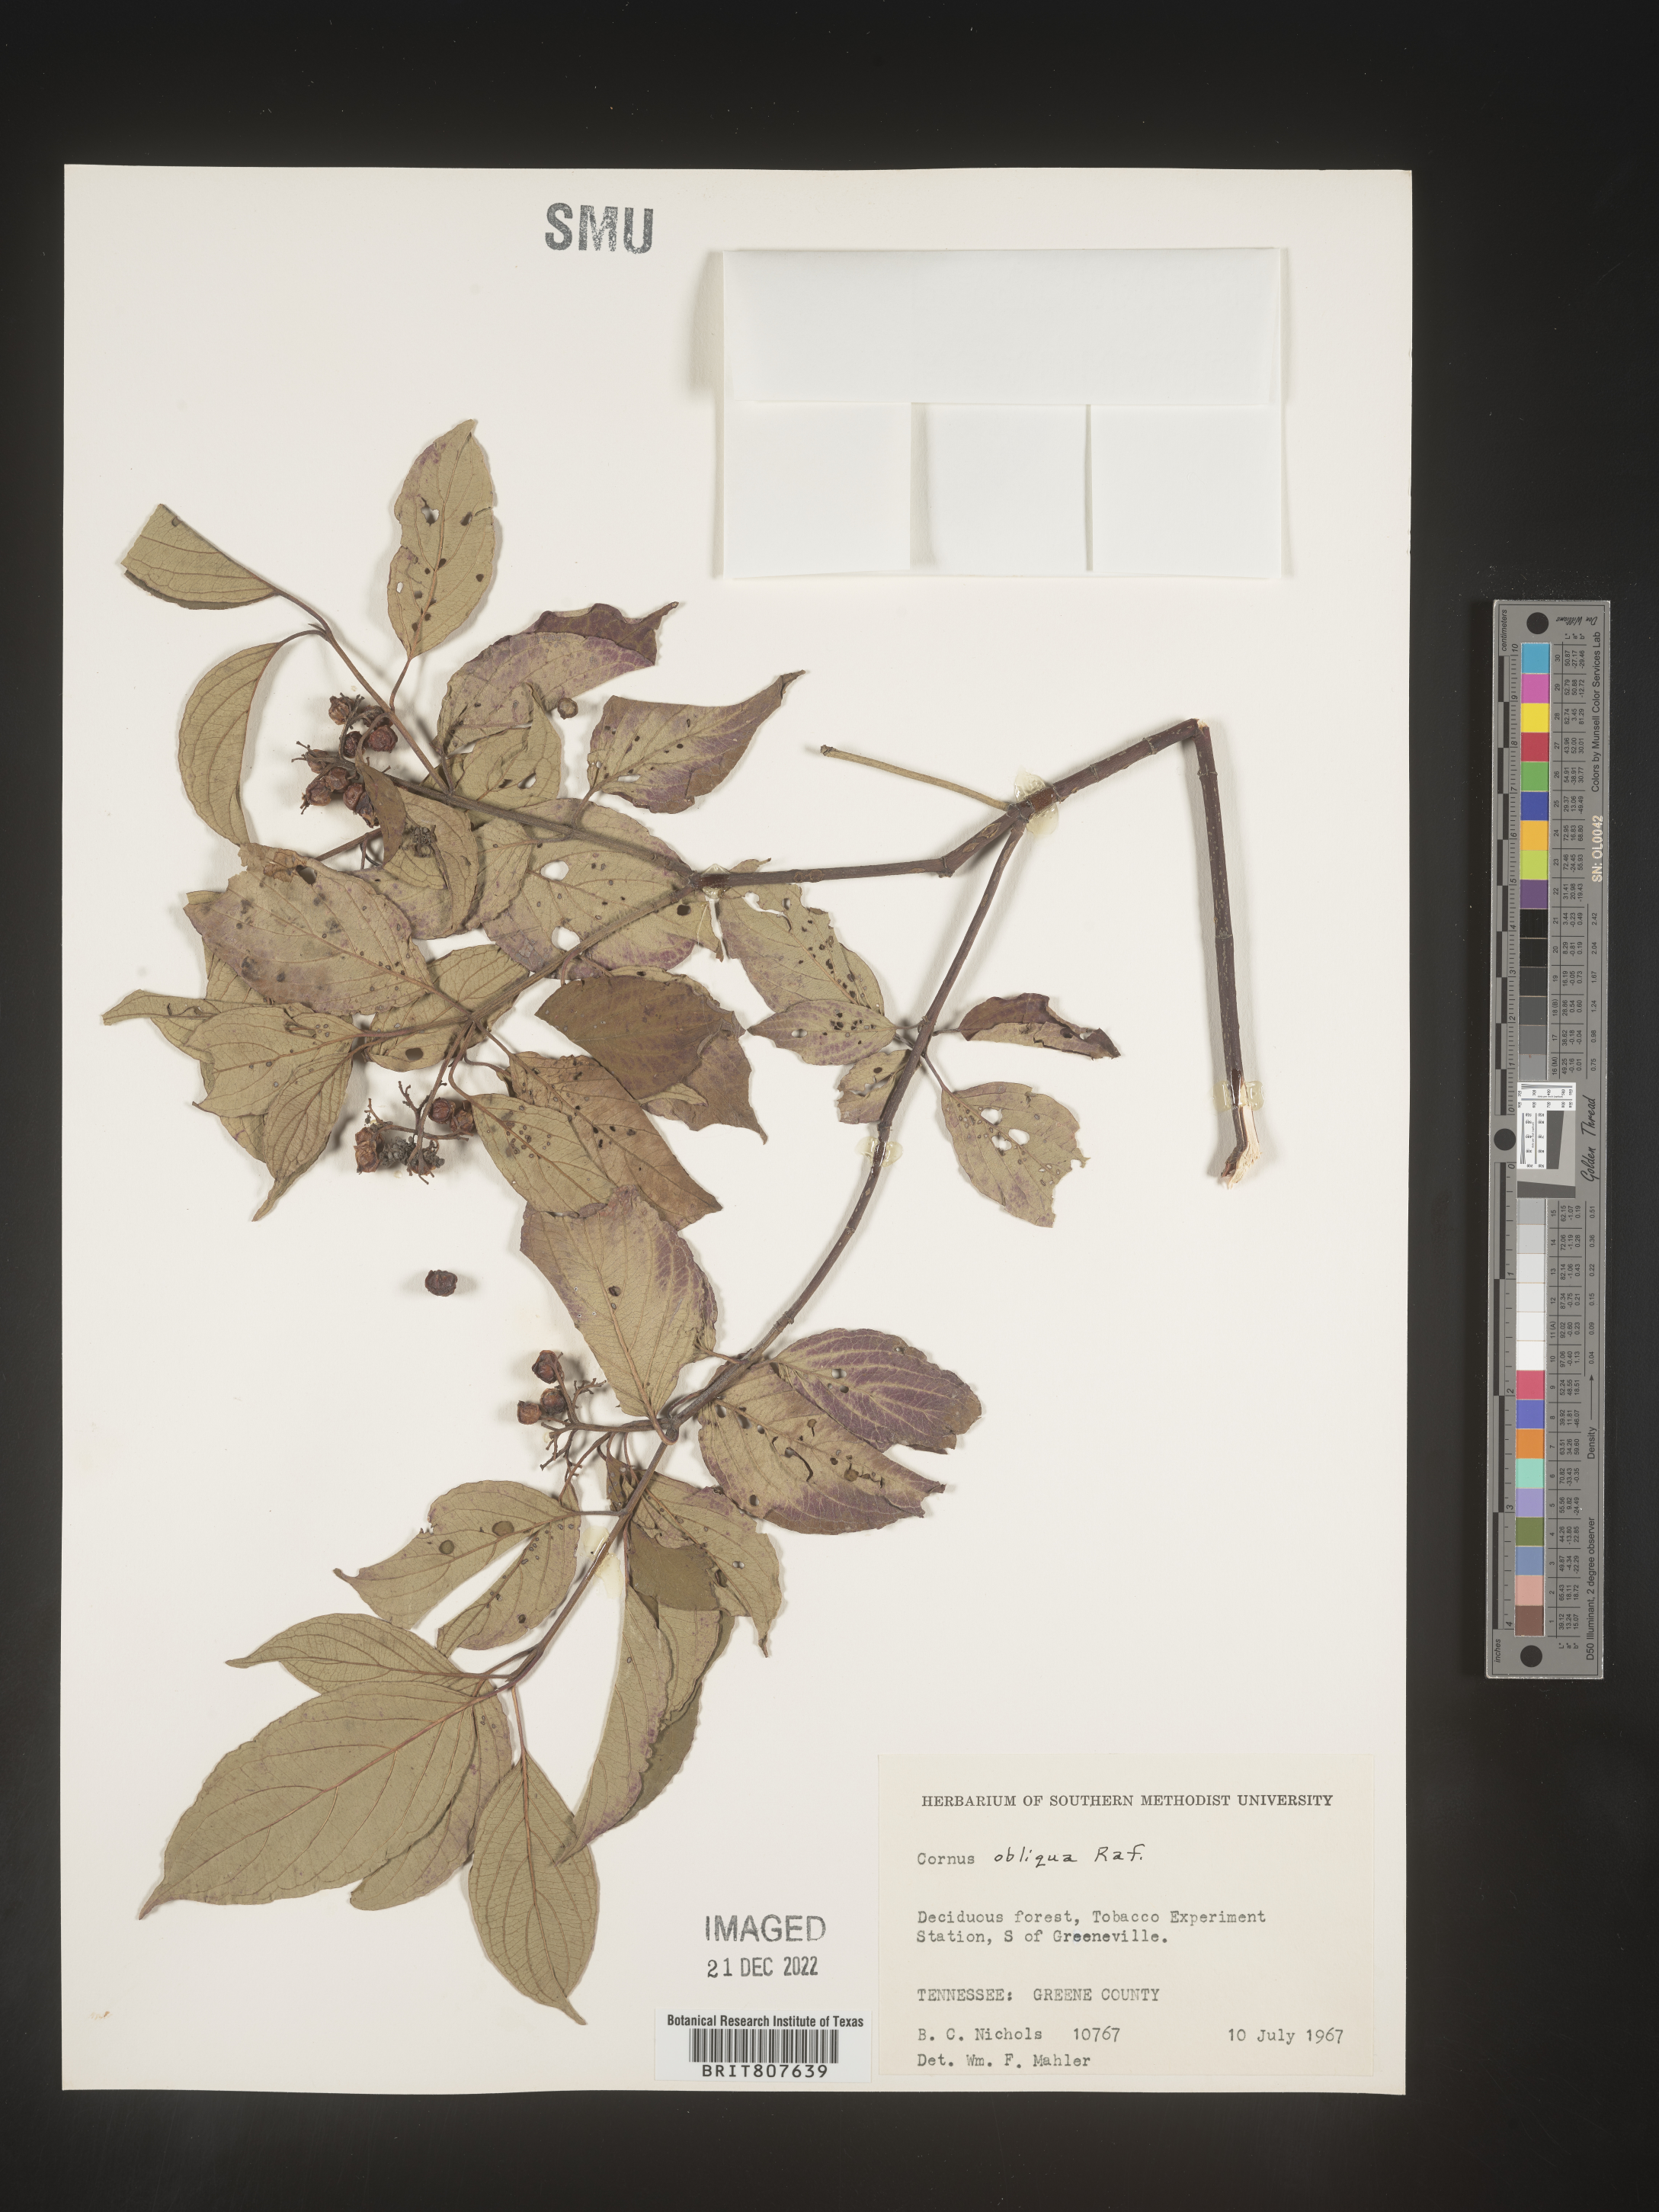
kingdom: Plantae
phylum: Tracheophyta
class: Magnoliopsida
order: Cornales
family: Cornaceae
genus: Cornus
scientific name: Cornus obliqua
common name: Pale dogwood
